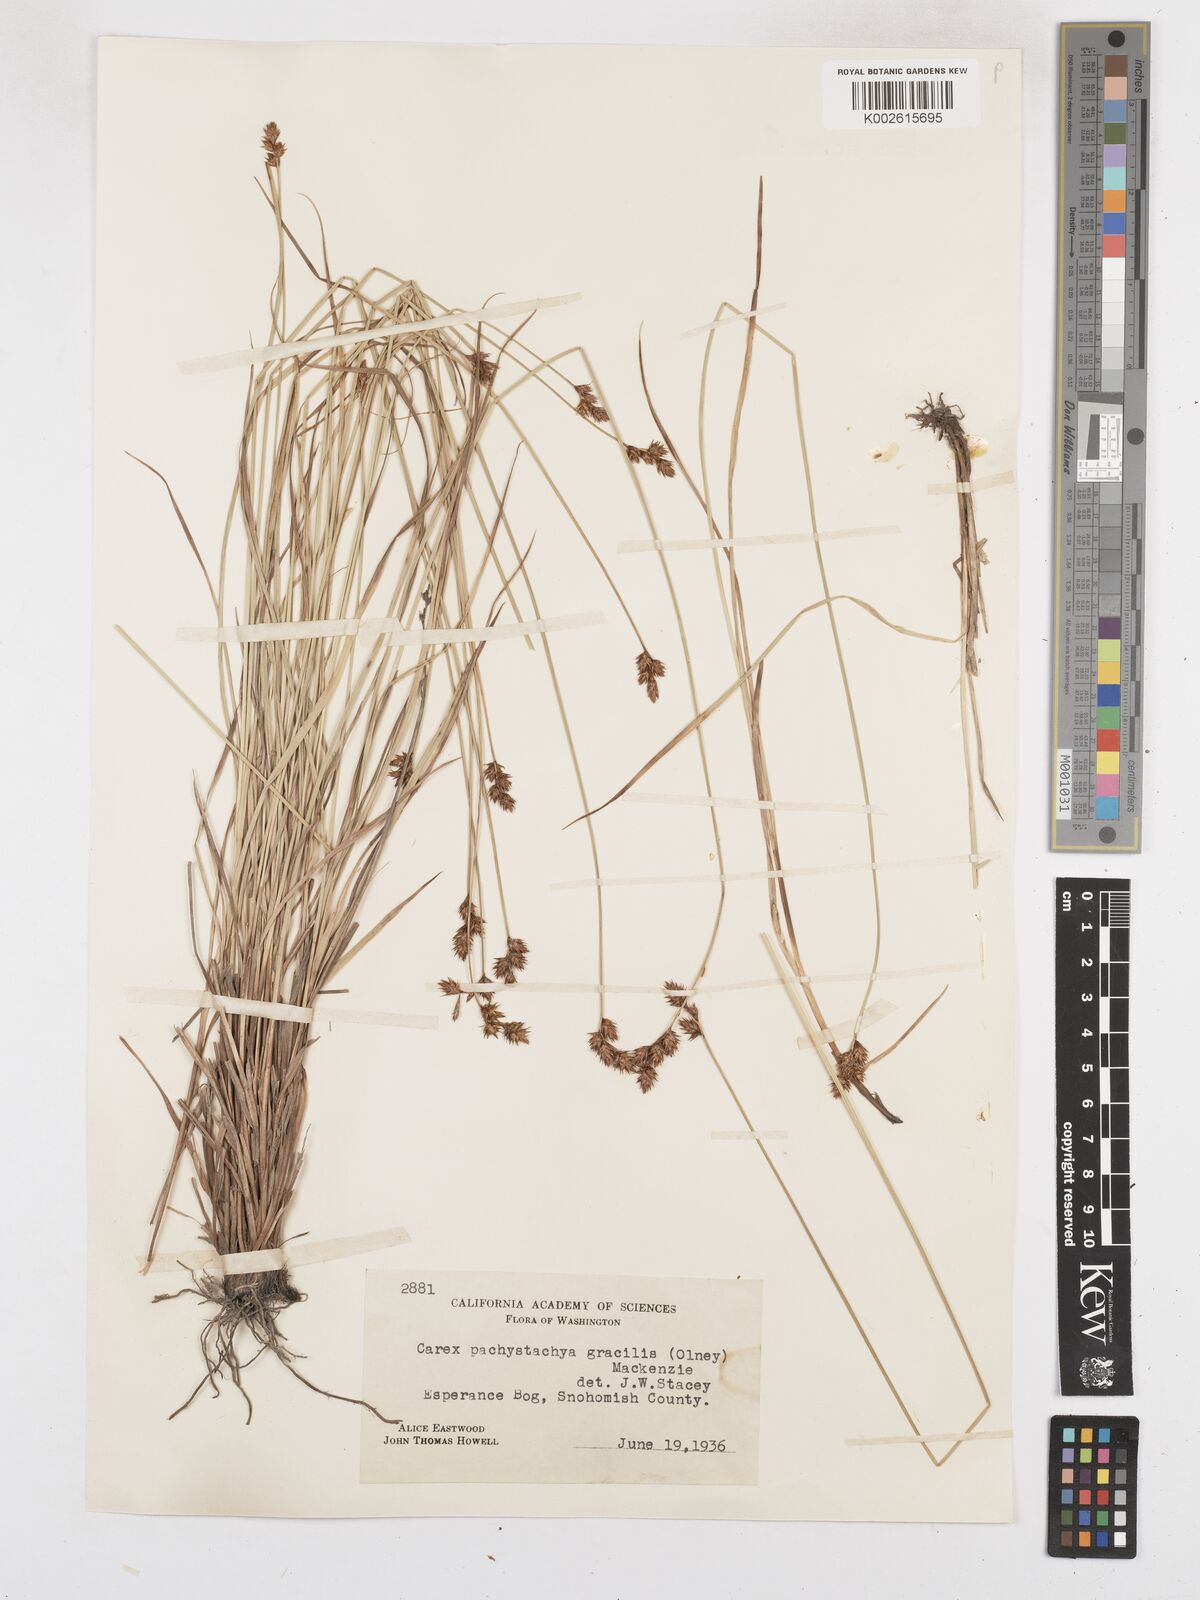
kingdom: Plantae
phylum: Tracheophyta
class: Liliopsida
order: Poales
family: Cyperaceae
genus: Carex
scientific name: Carex pachystachya
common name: Chamisso's sedge
